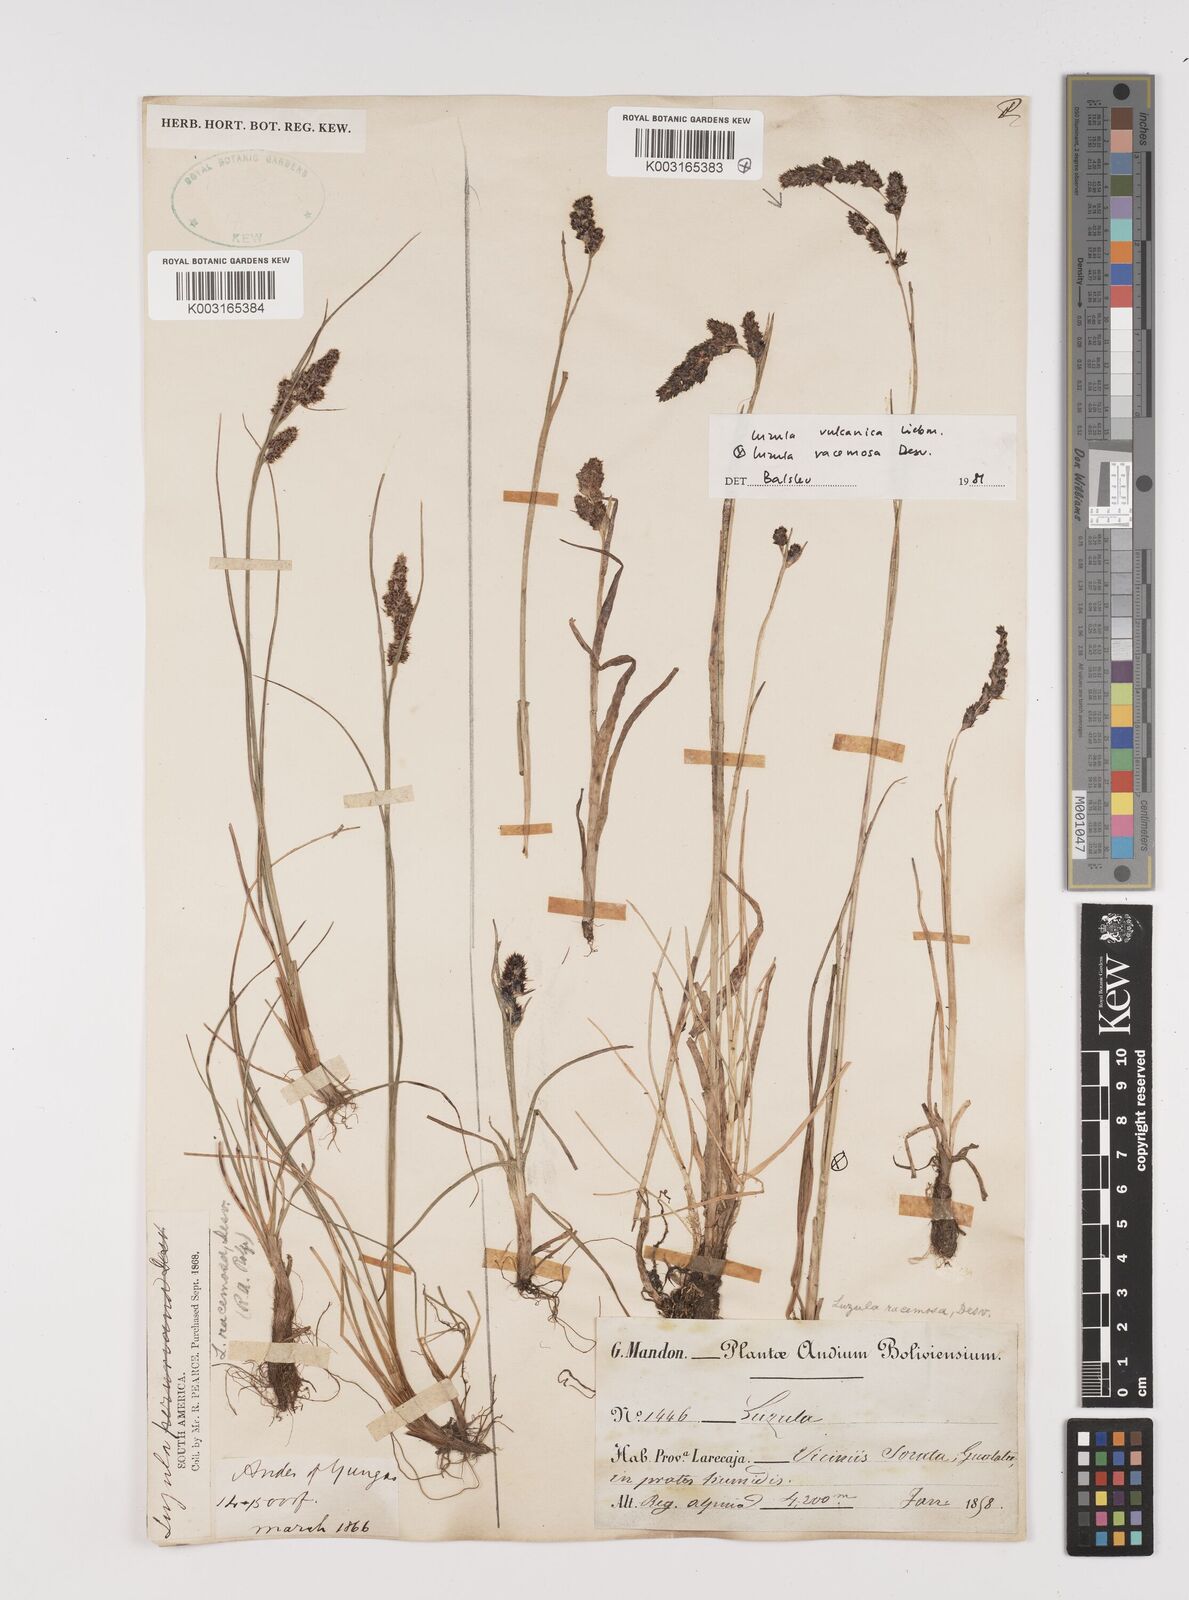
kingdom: Plantae
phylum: Tracheophyta
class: Liliopsida
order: Poales
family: Juncaceae
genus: Luzula
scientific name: Luzula vulcanica
